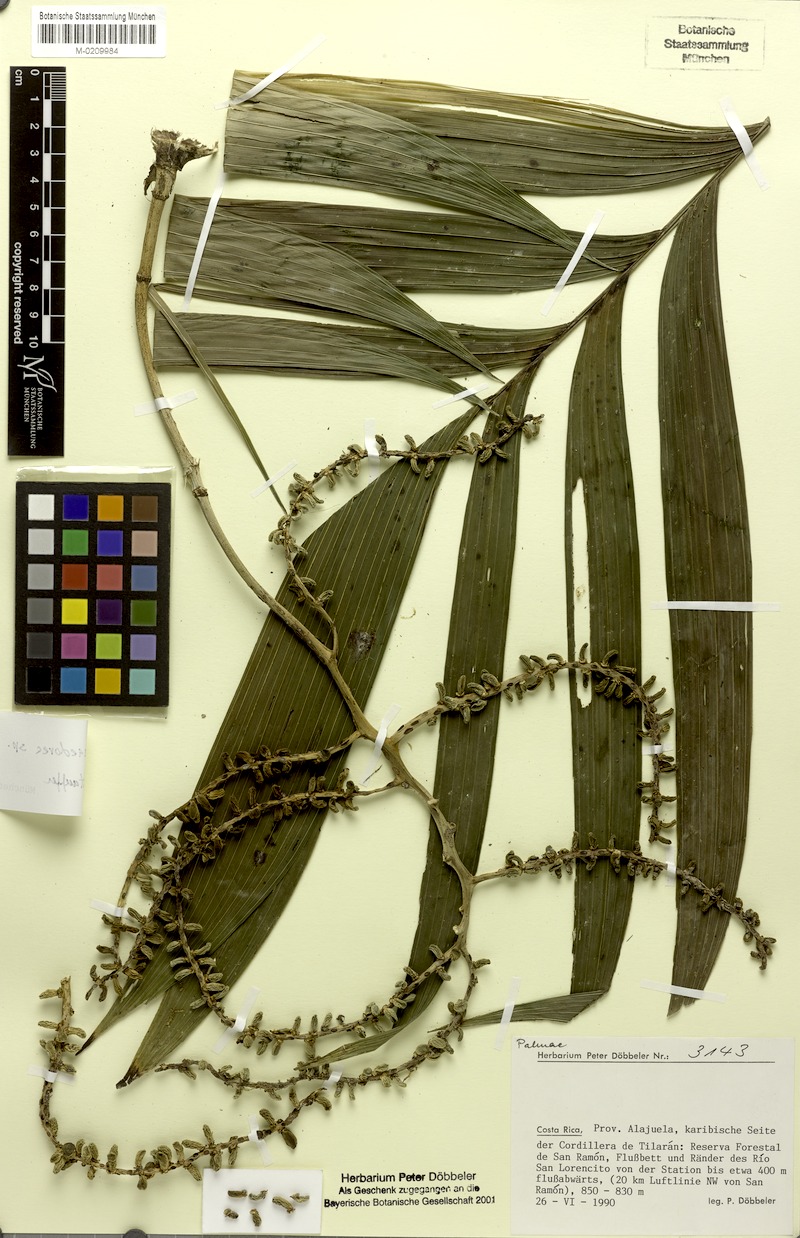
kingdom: Plantae
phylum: Tracheophyta
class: Liliopsida
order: Arecales
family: Arecaceae
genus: Chamaedorea
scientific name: Chamaedorea
